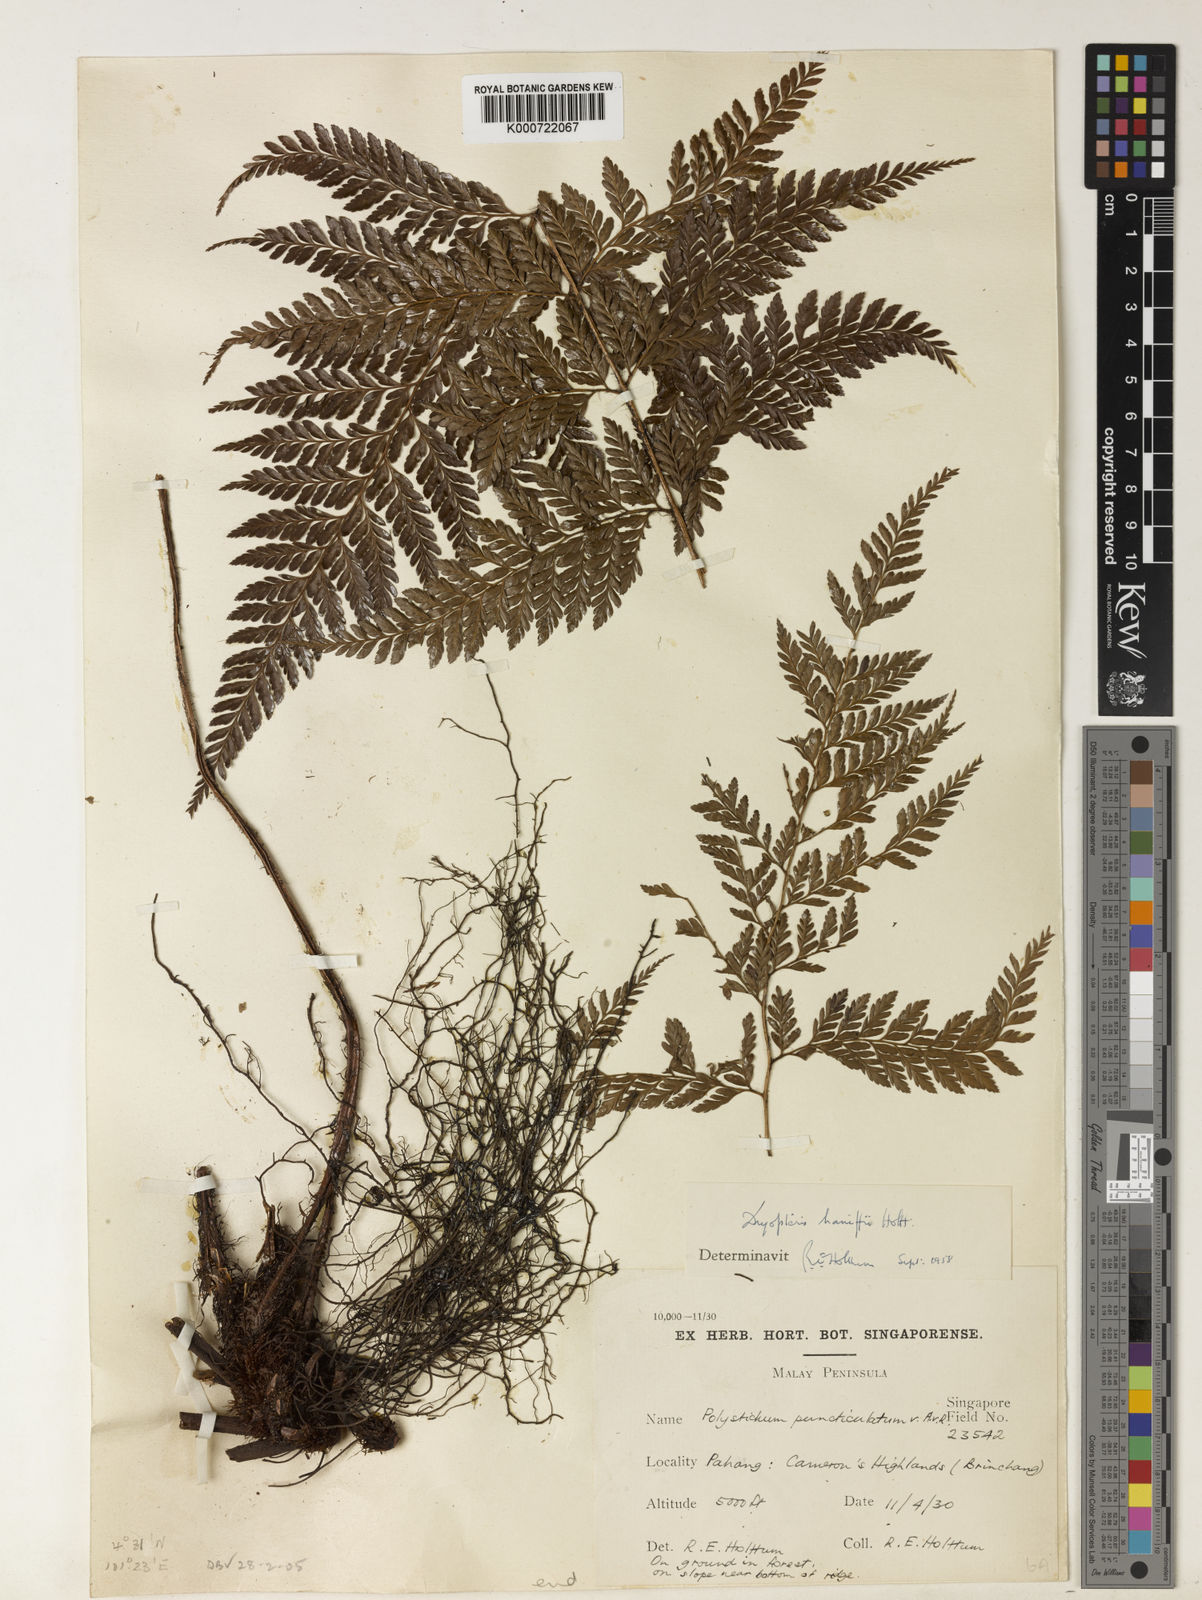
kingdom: Plantae
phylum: Tracheophyta
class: Polypodiopsida
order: Polypodiales
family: Dryopteridaceae
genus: Arachniodes
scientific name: Arachniodes haniffii
